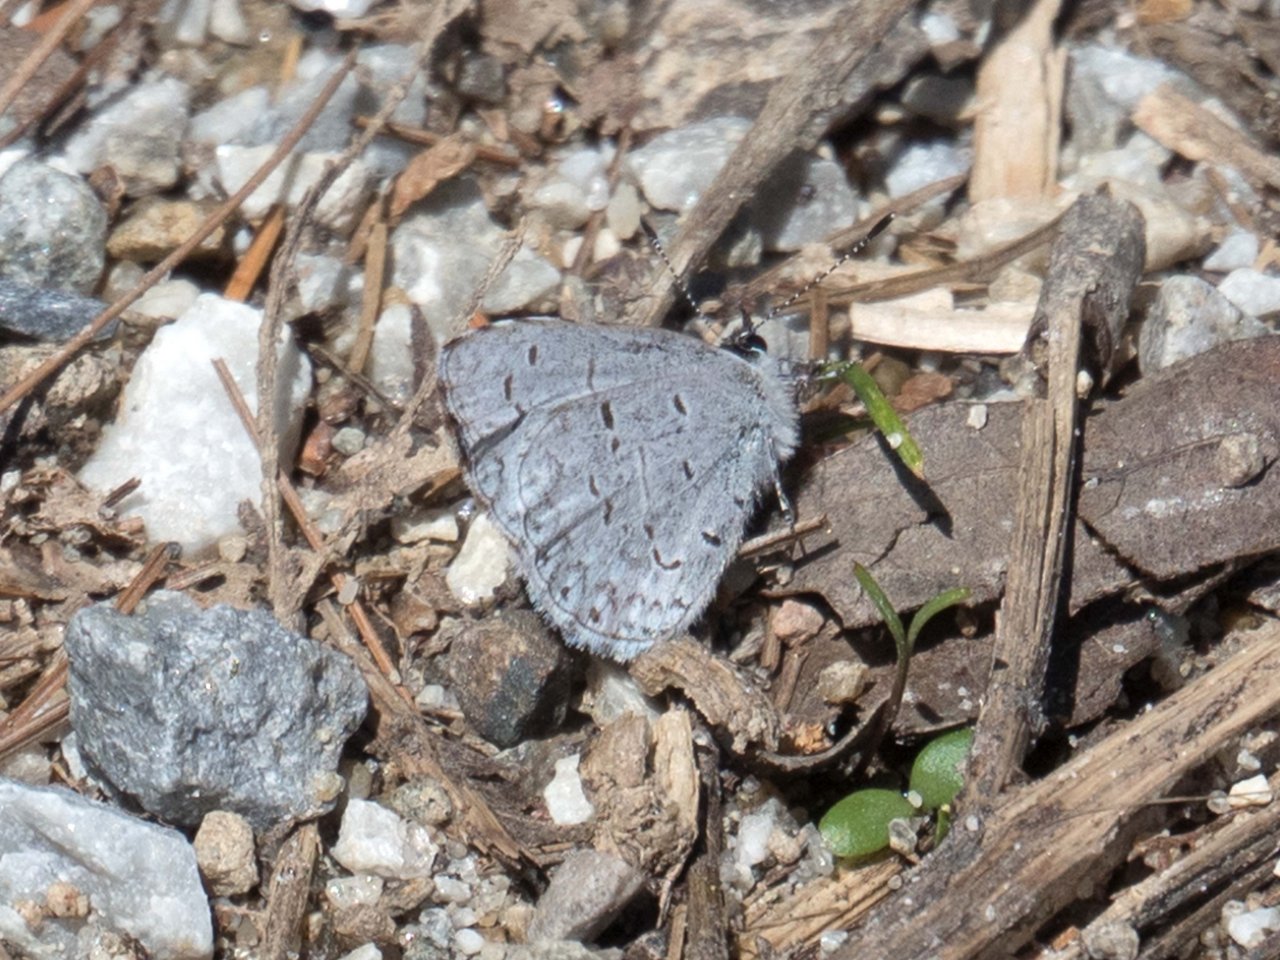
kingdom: Animalia
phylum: Arthropoda
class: Insecta
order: Lepidoptera
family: Lycaenidae
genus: Celastrina
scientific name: Celastrina lucia
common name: Northern Spring Azure
